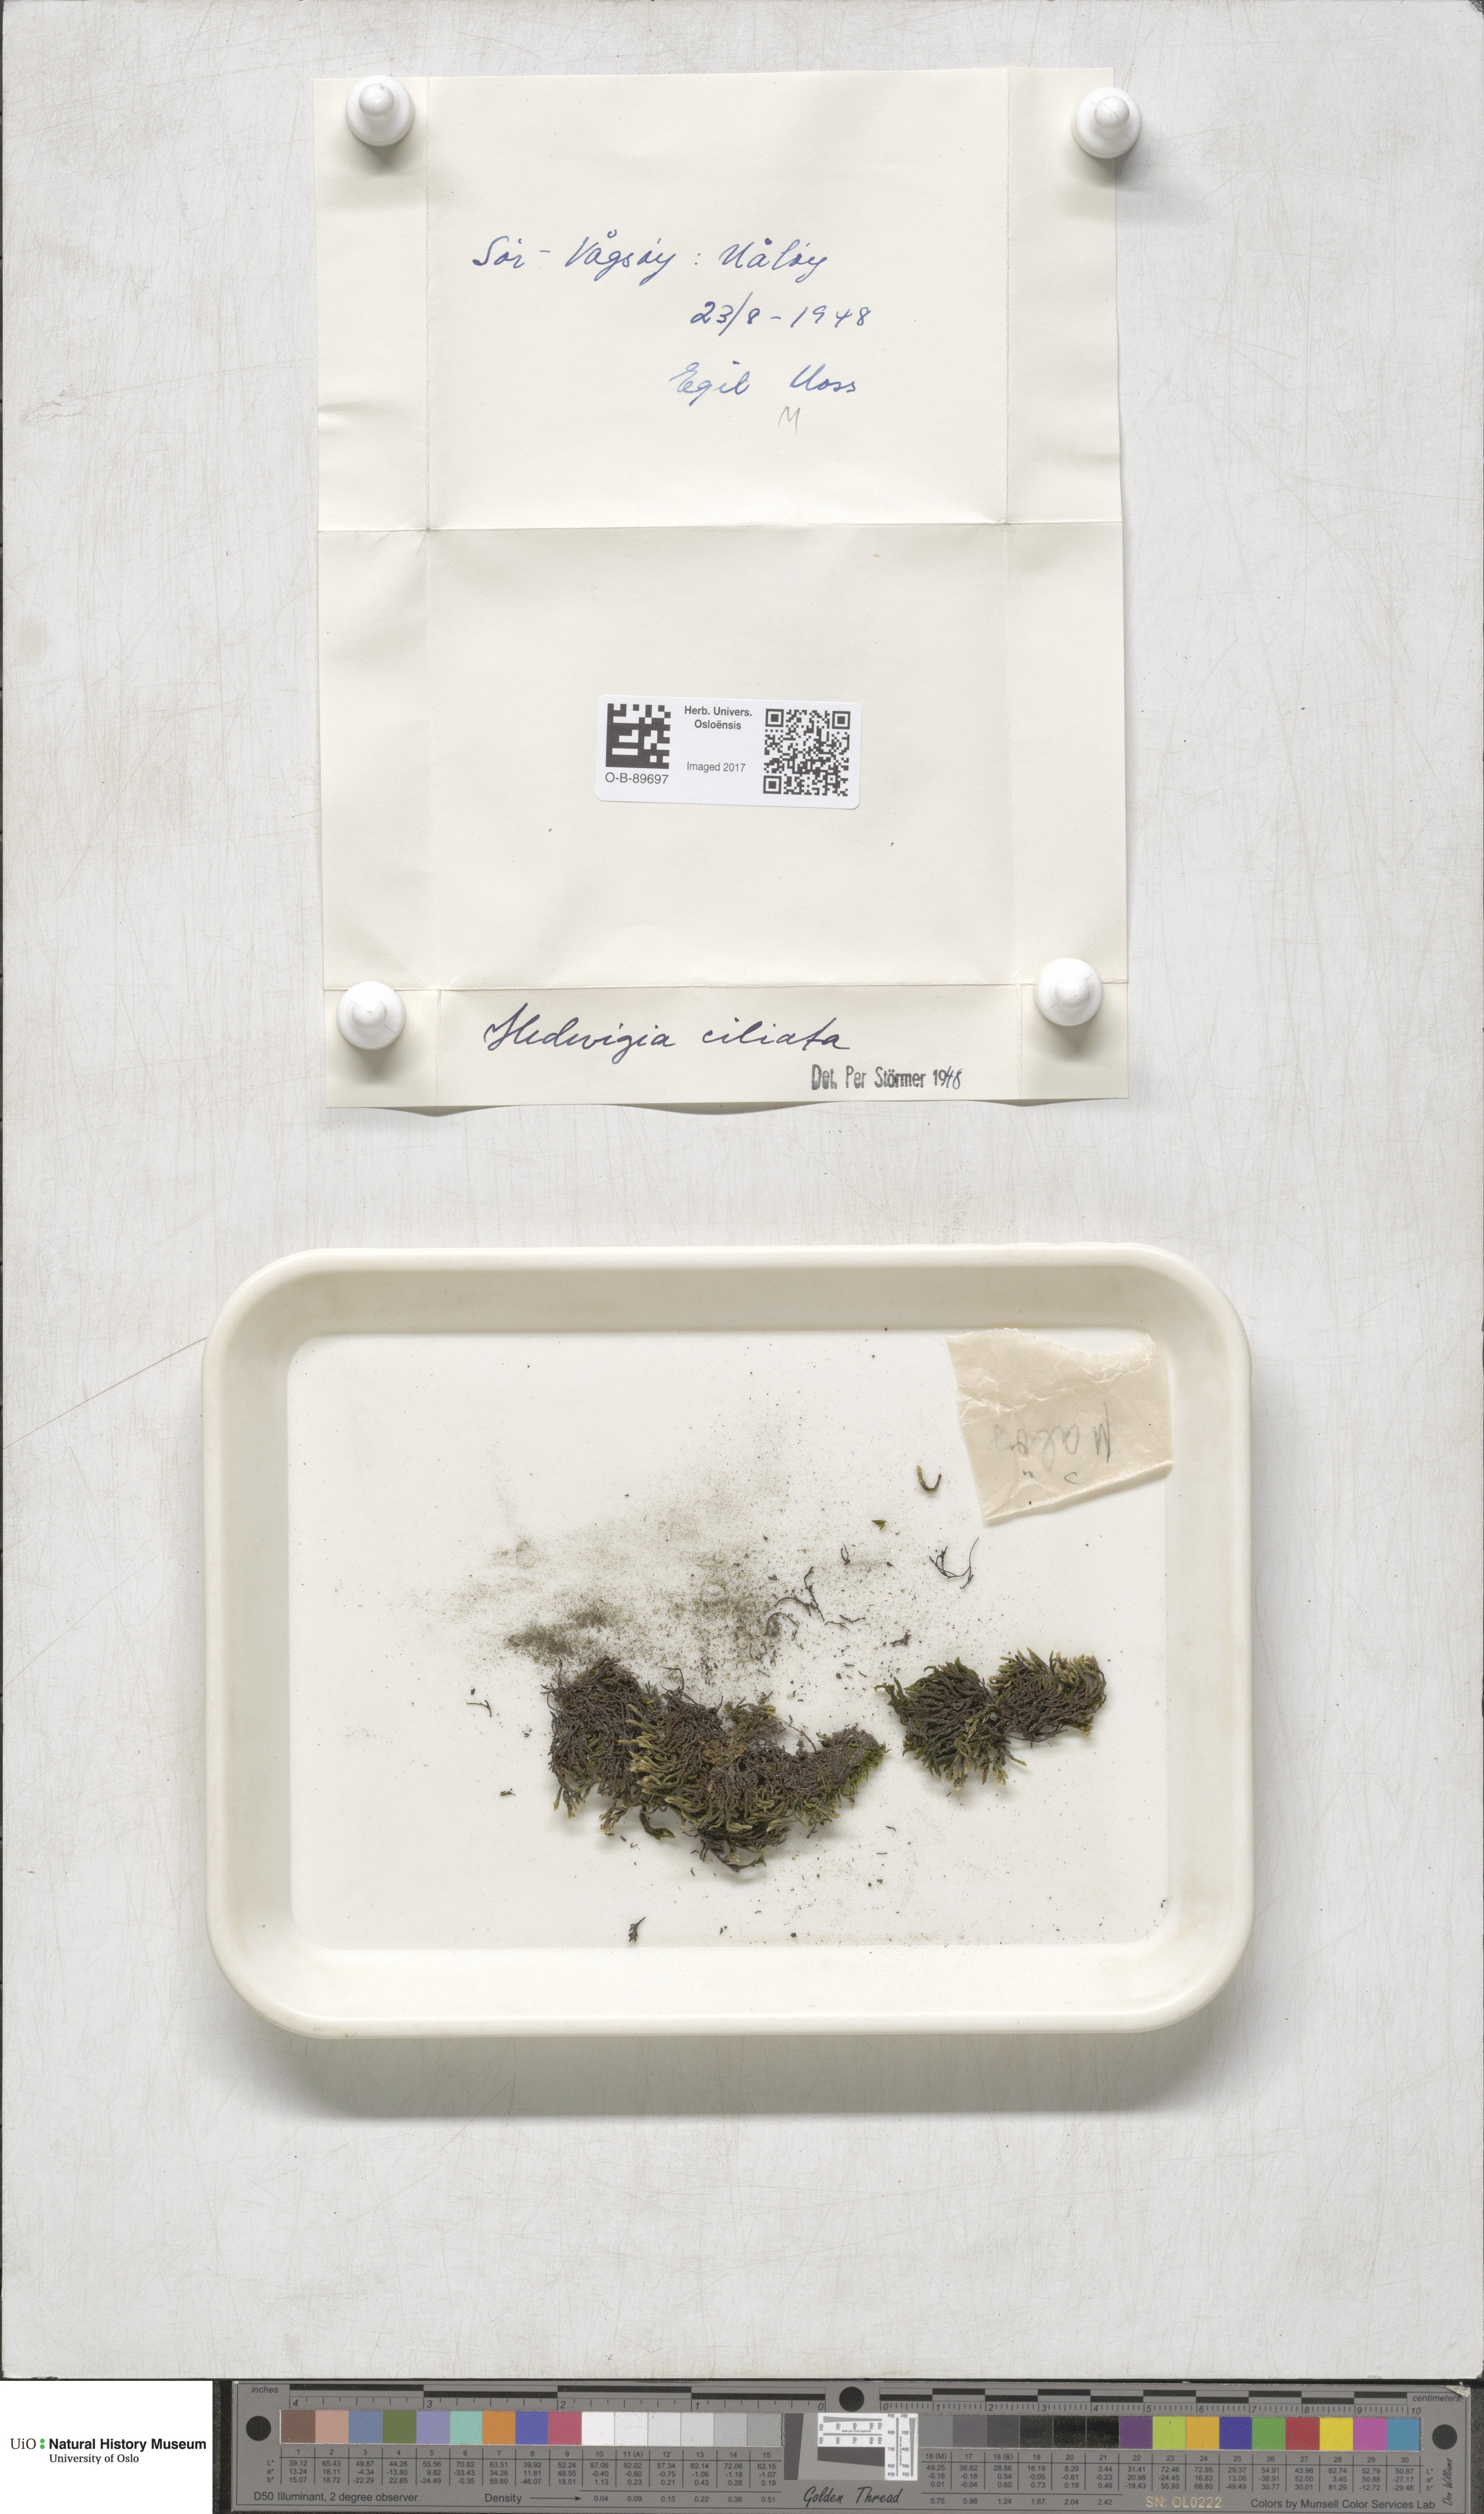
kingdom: Plantae
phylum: Bryophyta
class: Bryopsida
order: Hedwigiales
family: Hedwigiaceae
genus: Hedwigia
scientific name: Hedwigia ciliata
